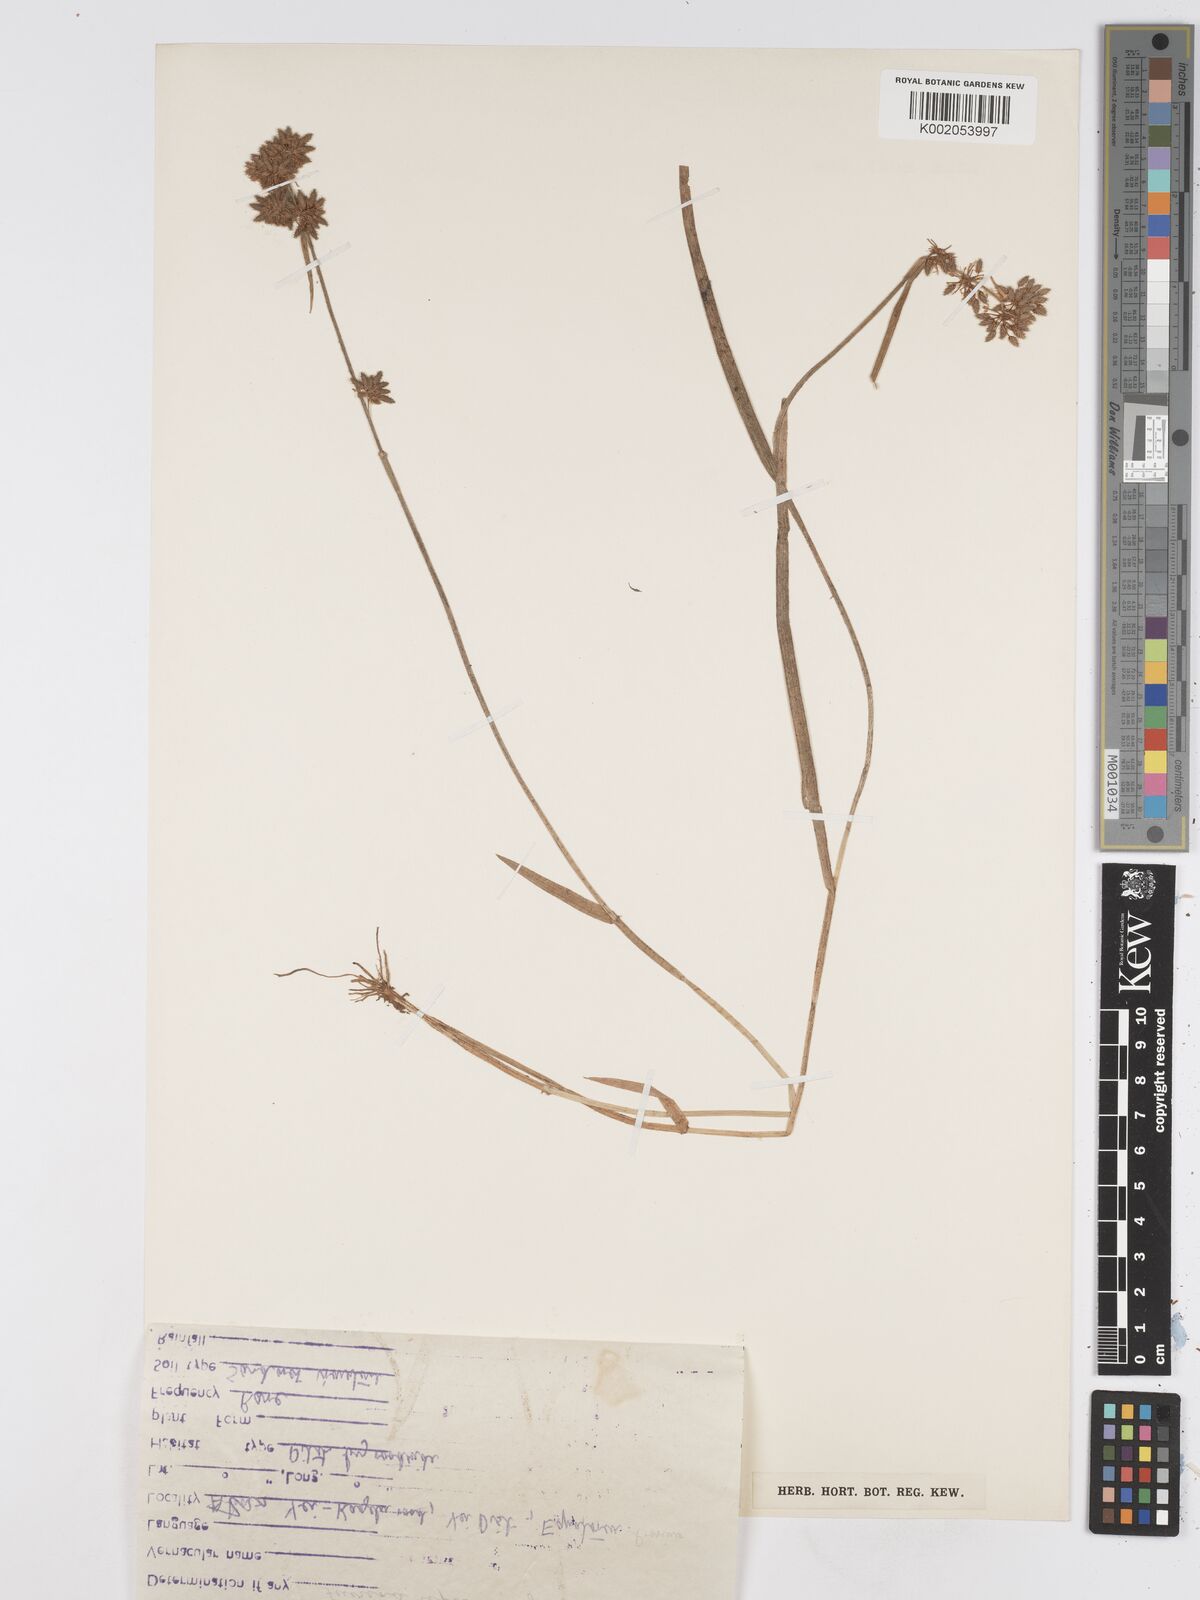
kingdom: Plantae
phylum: Tracheophyta
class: Liliopsida
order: Poales
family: Cyperaceae
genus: Fuirena
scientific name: Fuirena leptostachya
